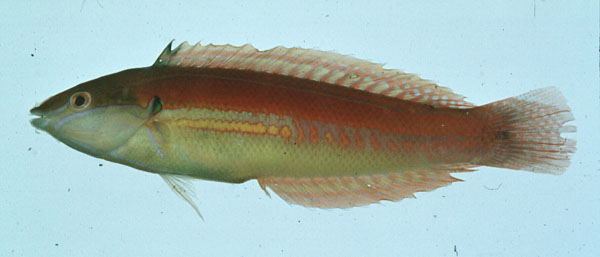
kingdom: Animalia
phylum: Chordata
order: Perciformes
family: Labridae
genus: Coris
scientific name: Coris caudimacula
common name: Spottail coris
